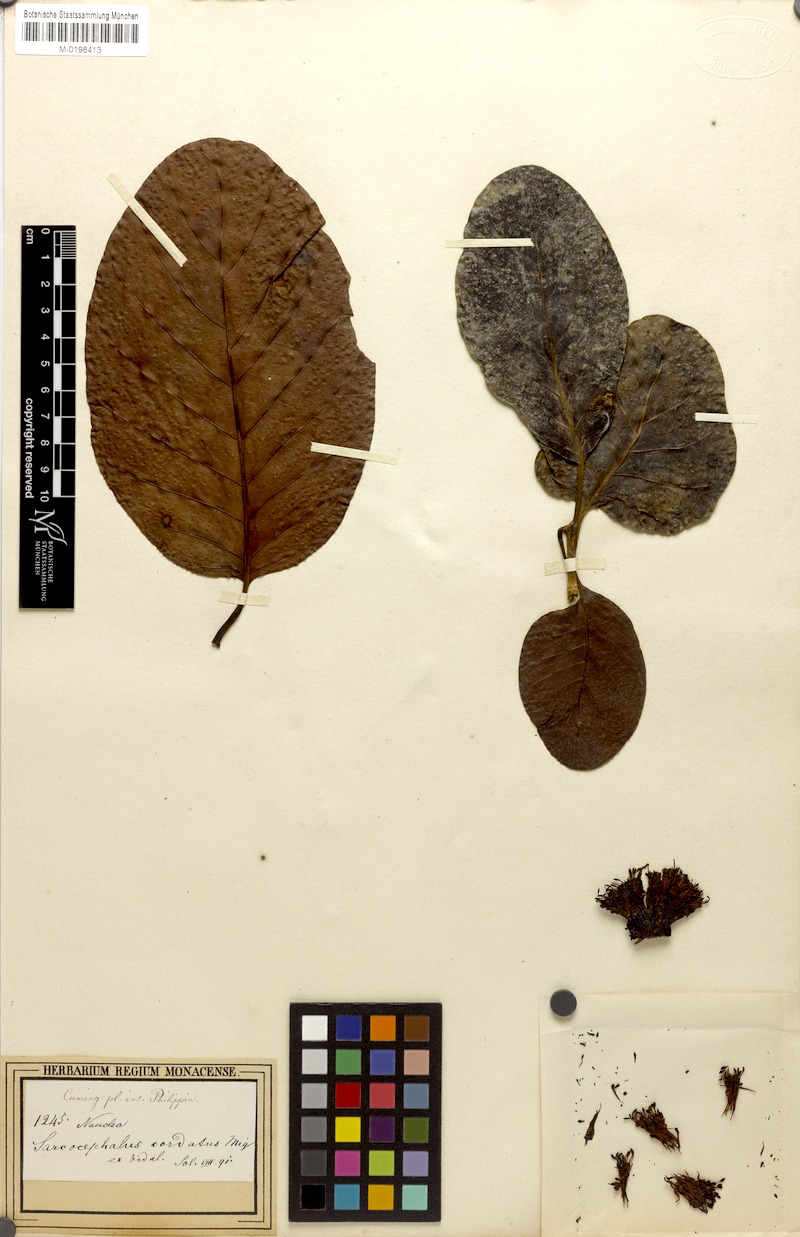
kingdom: Plantae
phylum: Tracheophyta
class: Magnoliopsida
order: Gentianales
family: Rubiaceae
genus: Nauclea
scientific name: Nauclea orientalis
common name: Leichhardt-pine
